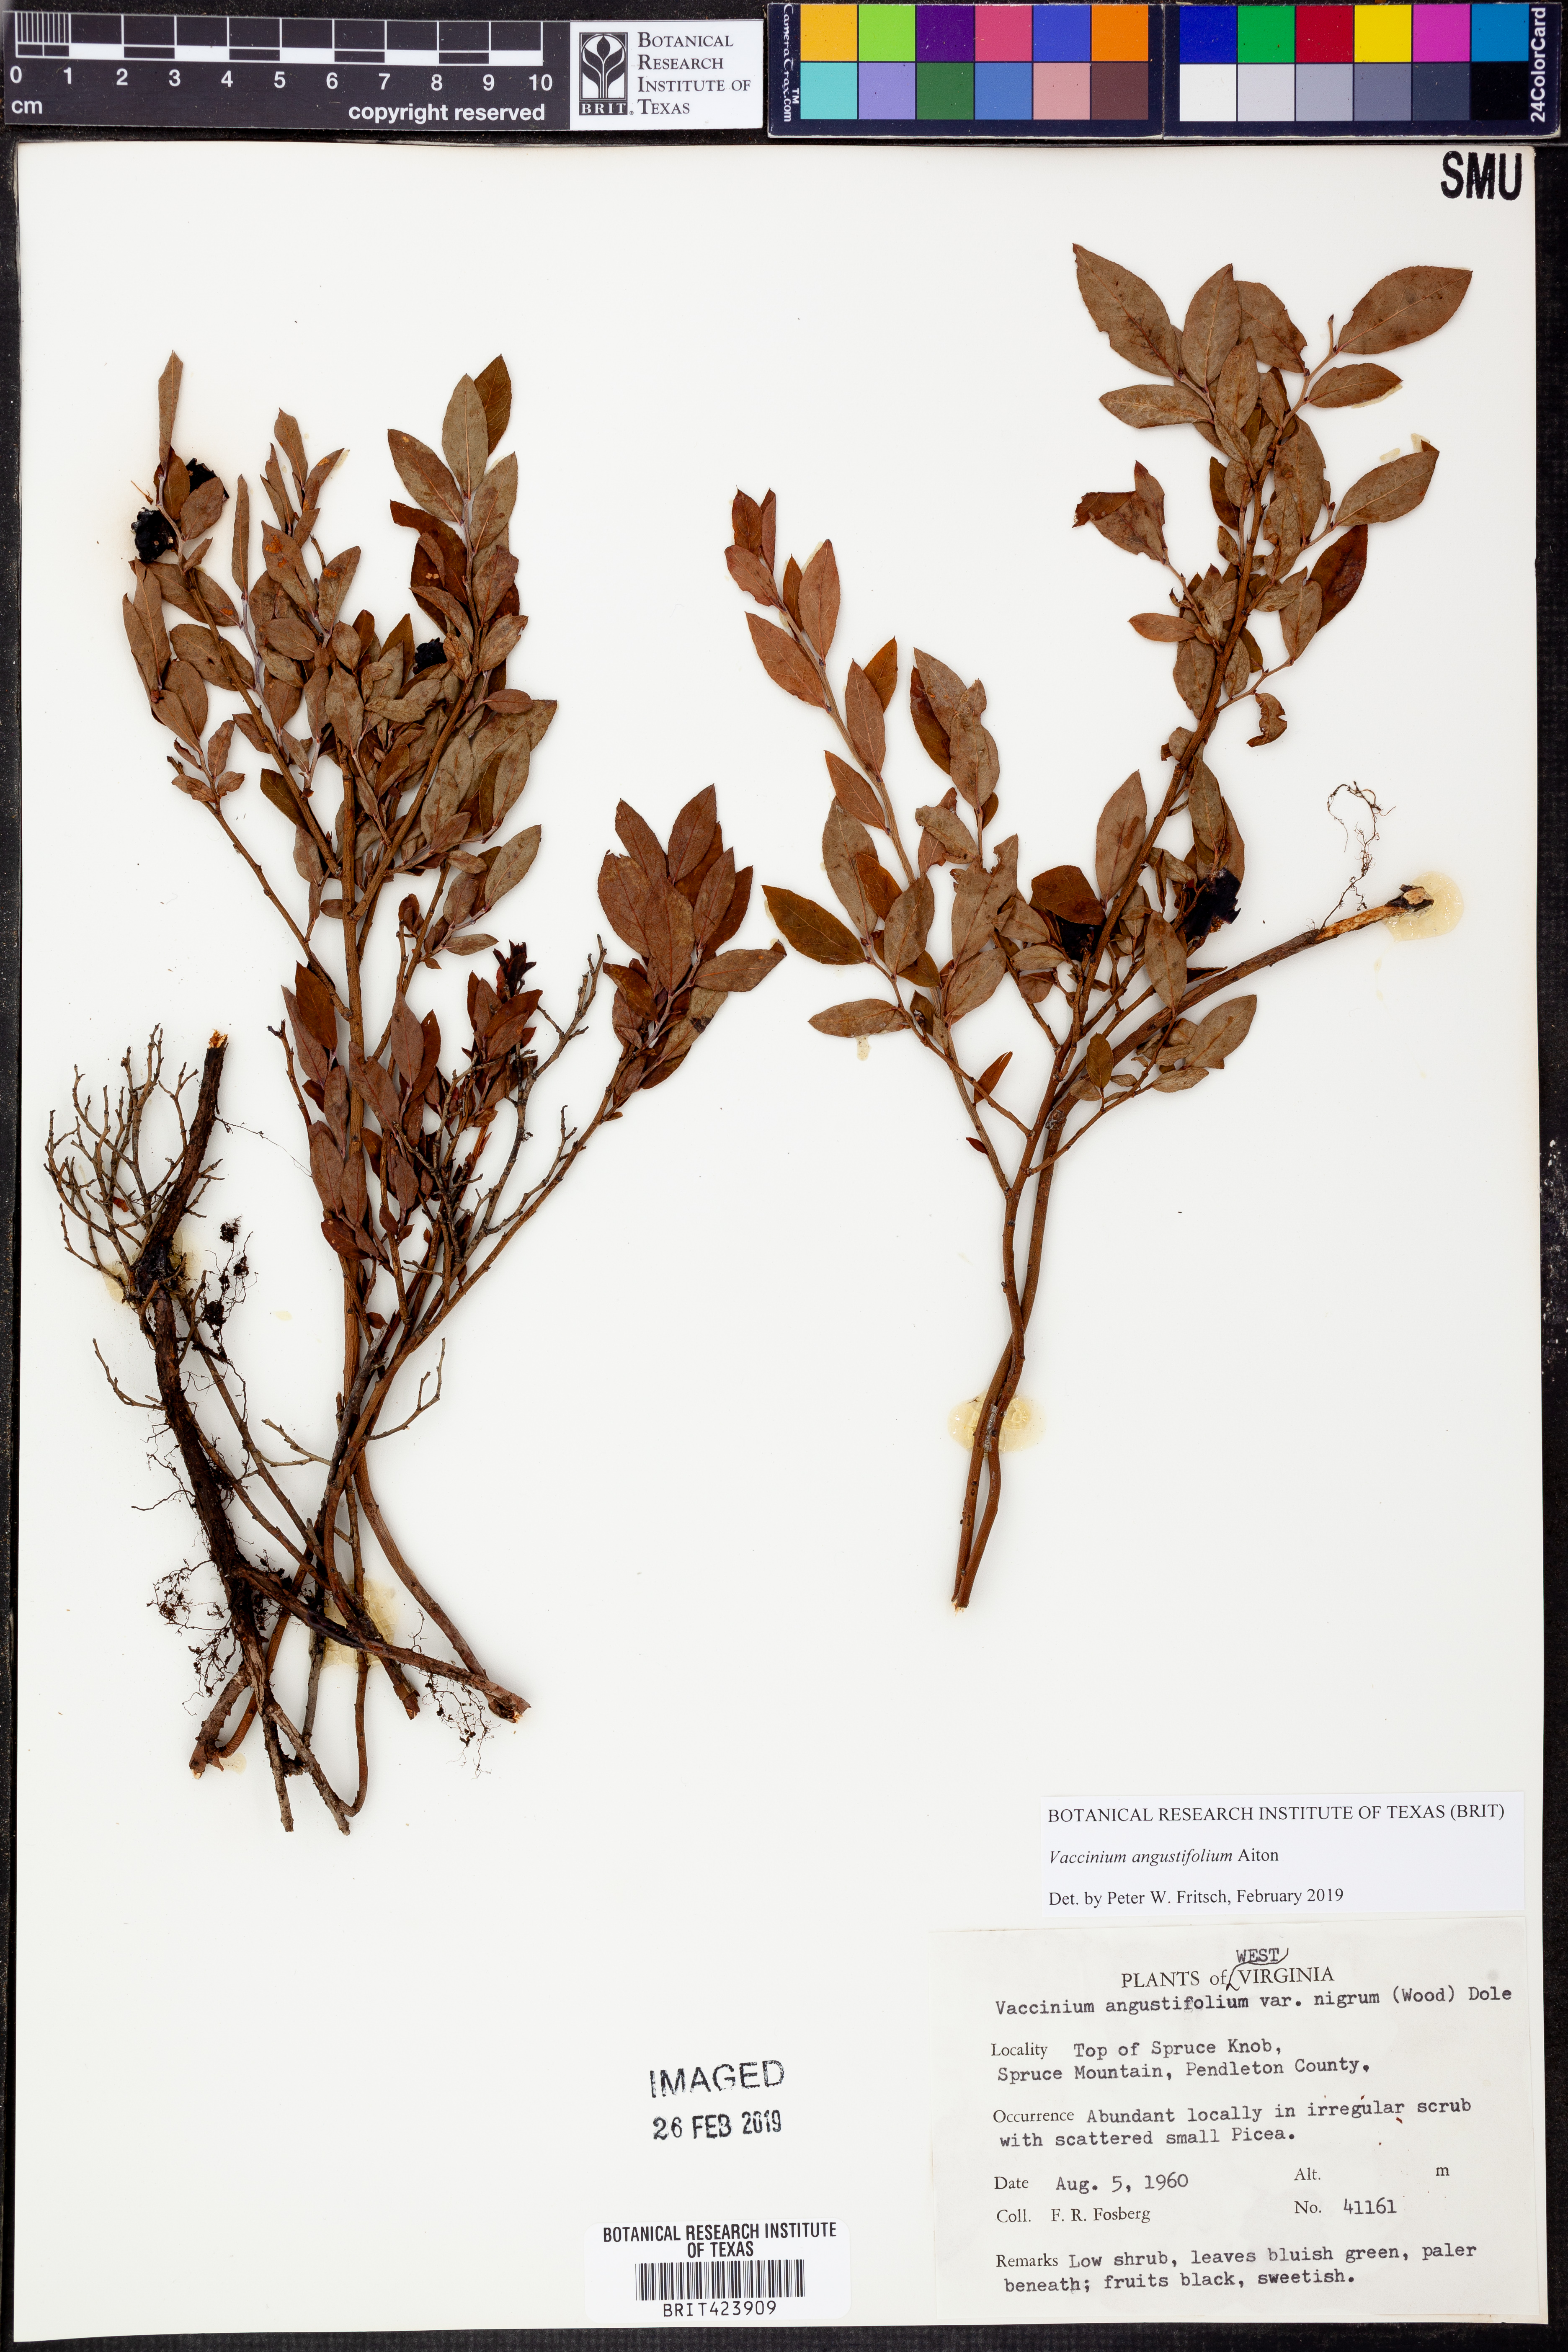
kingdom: Plantae
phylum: Tracheophyta
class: Magnoliopsida
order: Ericales
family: Ericaceae
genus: Vaccinium
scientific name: Vaccinium angustifolium
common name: Early lowbush blueberry
